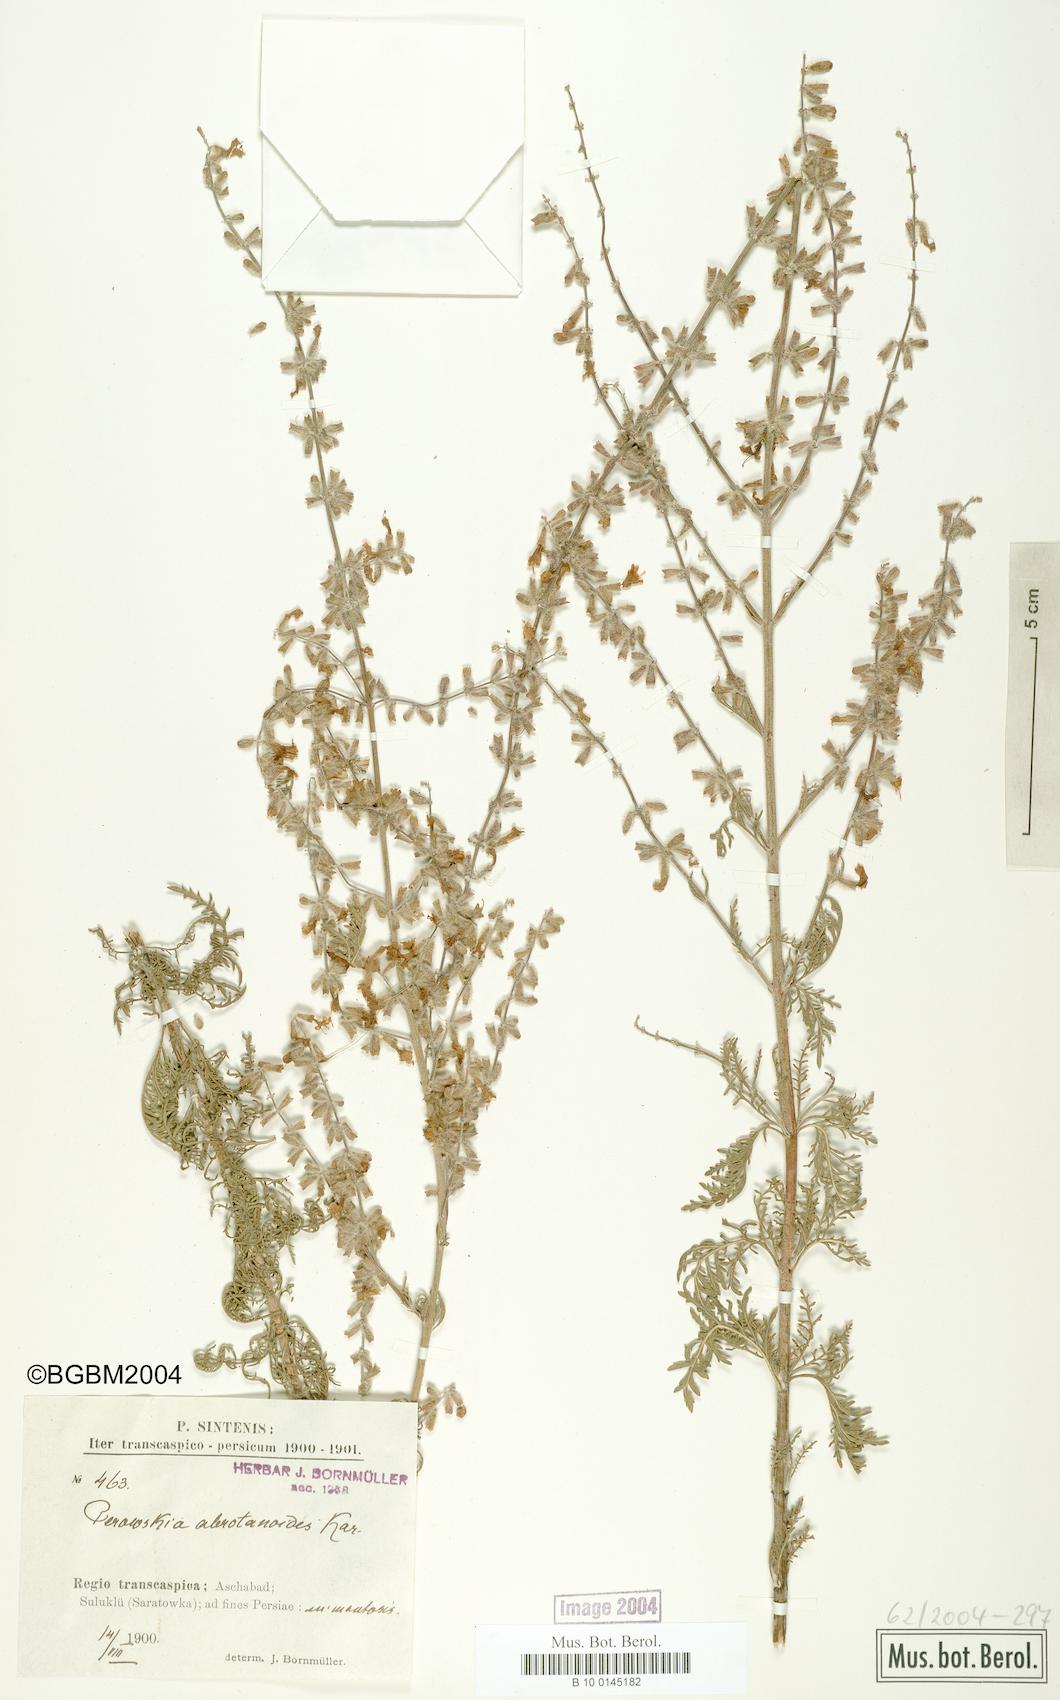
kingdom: Plantae
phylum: Tracheophyta
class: Magnoliopsida
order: Lamiales
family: Lamiaceae
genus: Salvia
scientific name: Salvia abrotanoides
